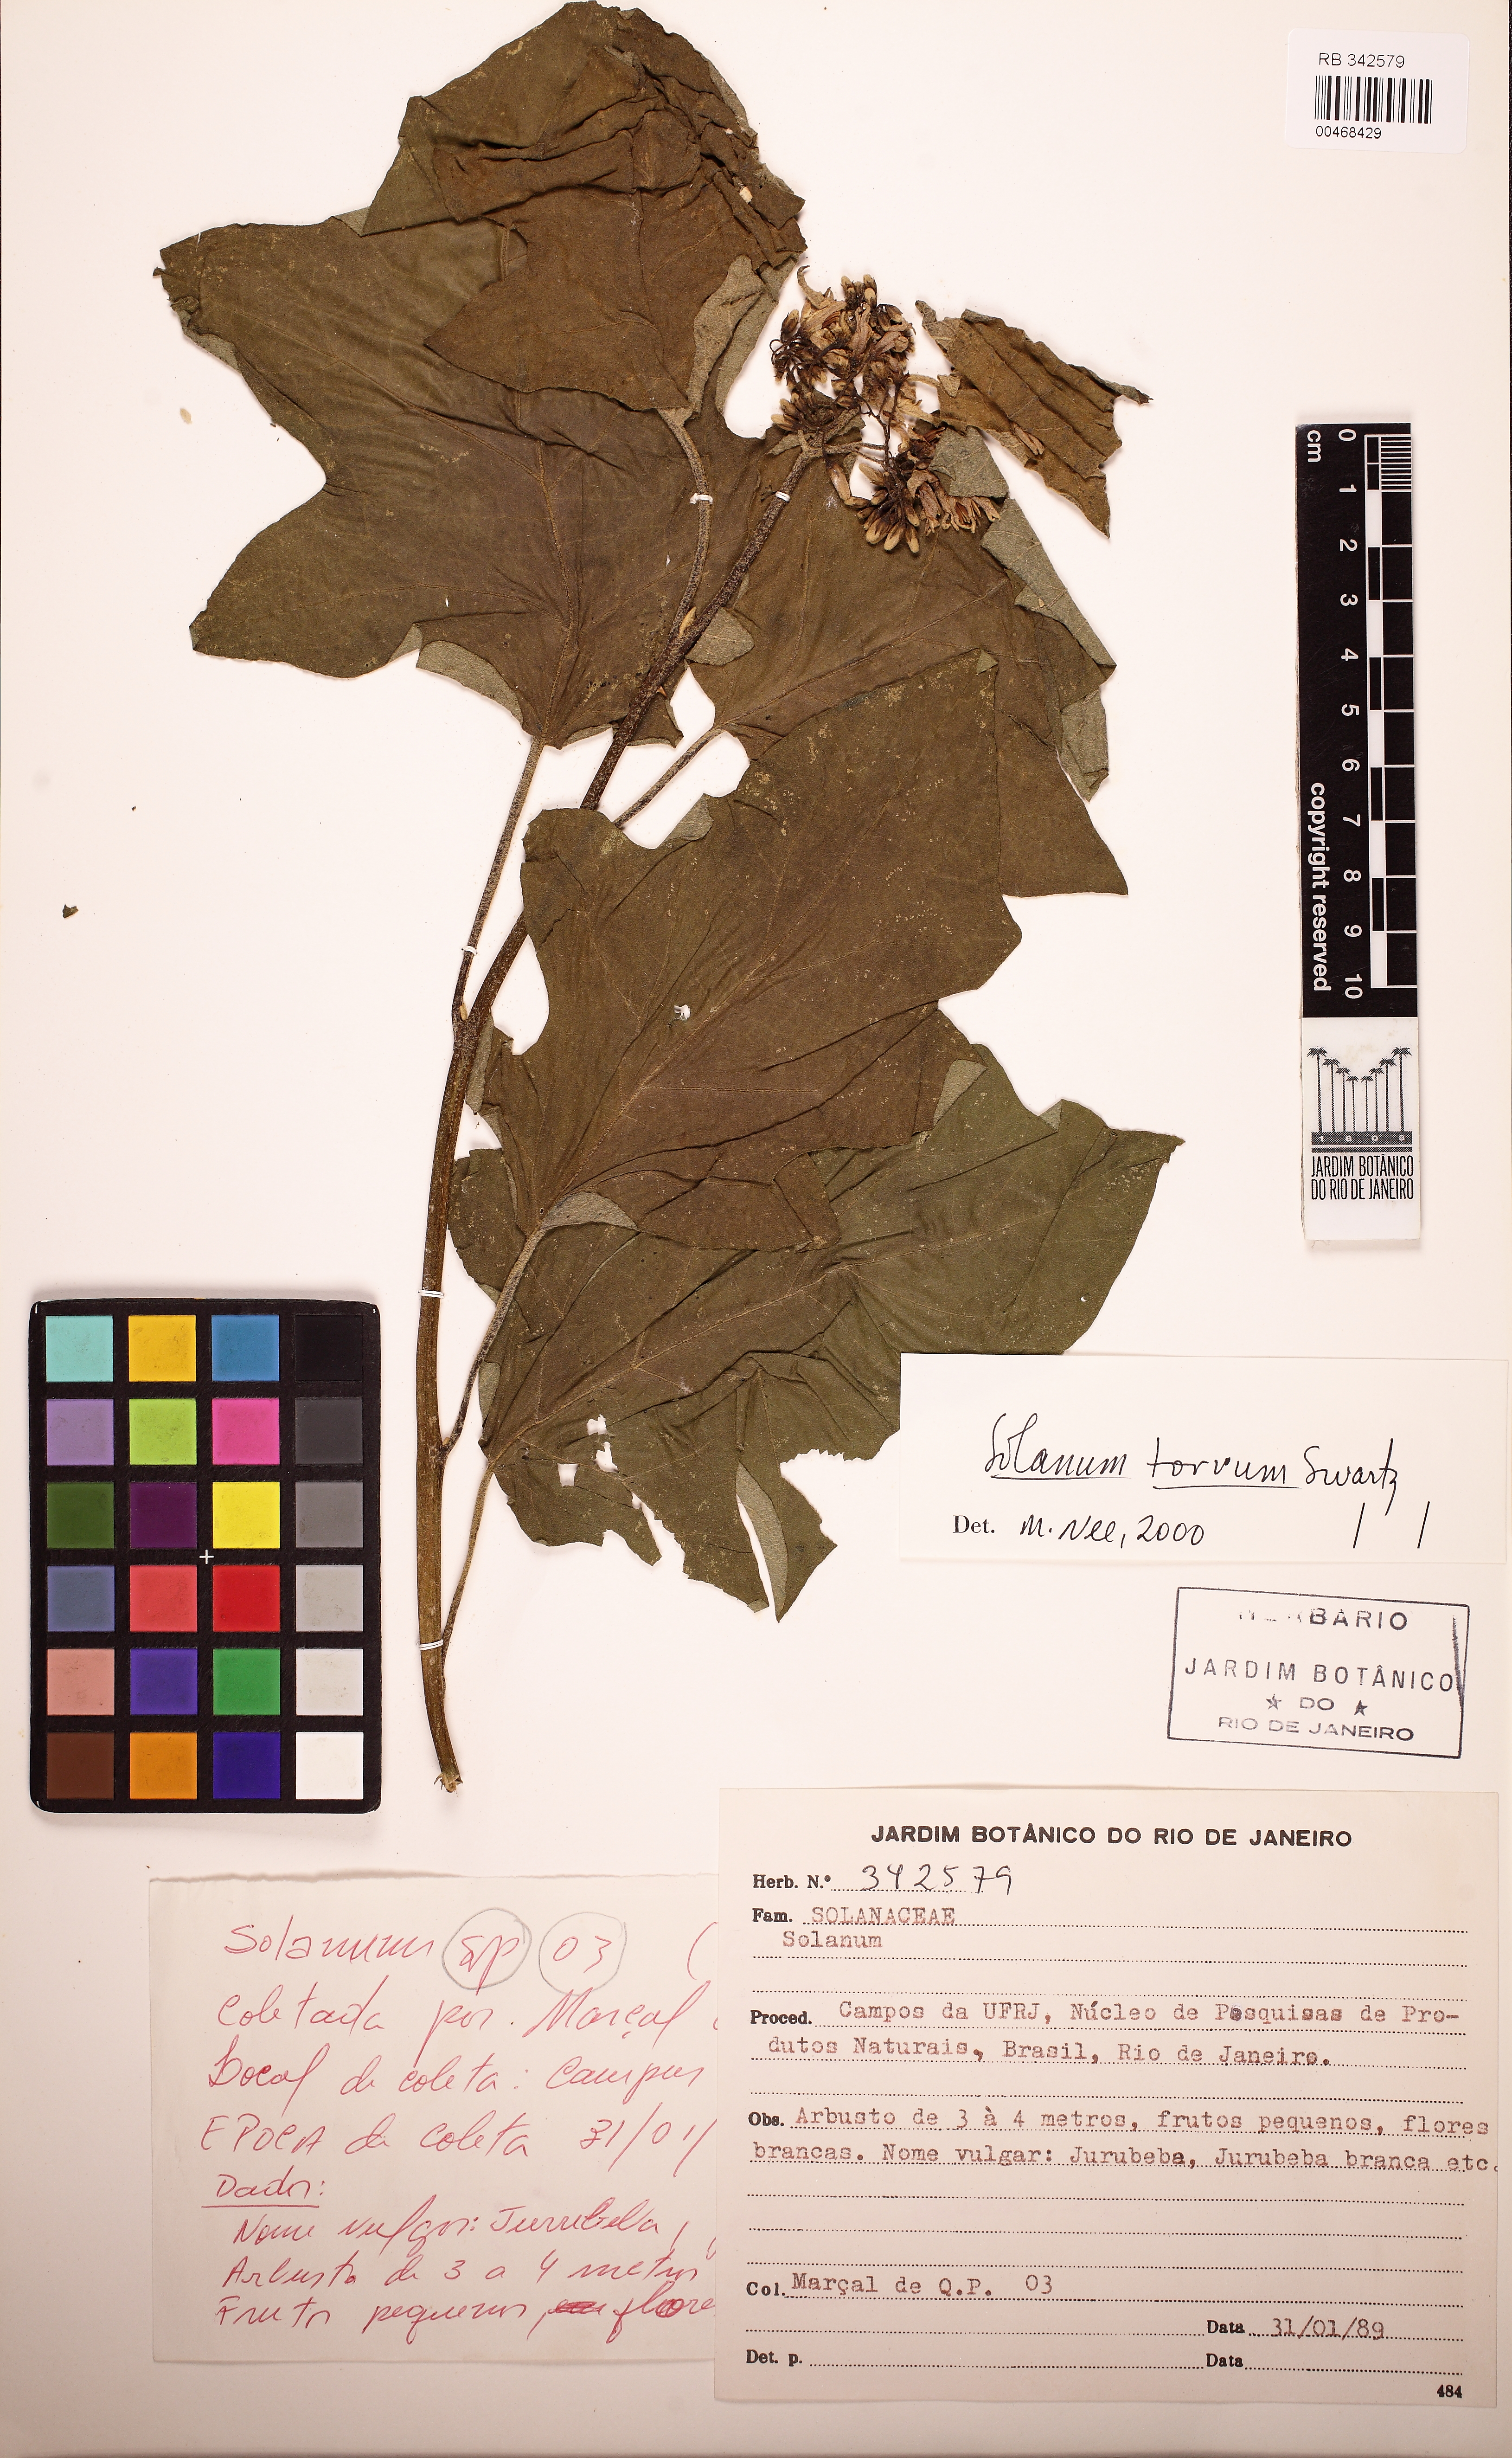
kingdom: Plantae
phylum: Tracheophyta
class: Magnoliopsida
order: Solanales
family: Solanaceae
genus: Solanum
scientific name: Solanum torvum
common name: Turkey berry
